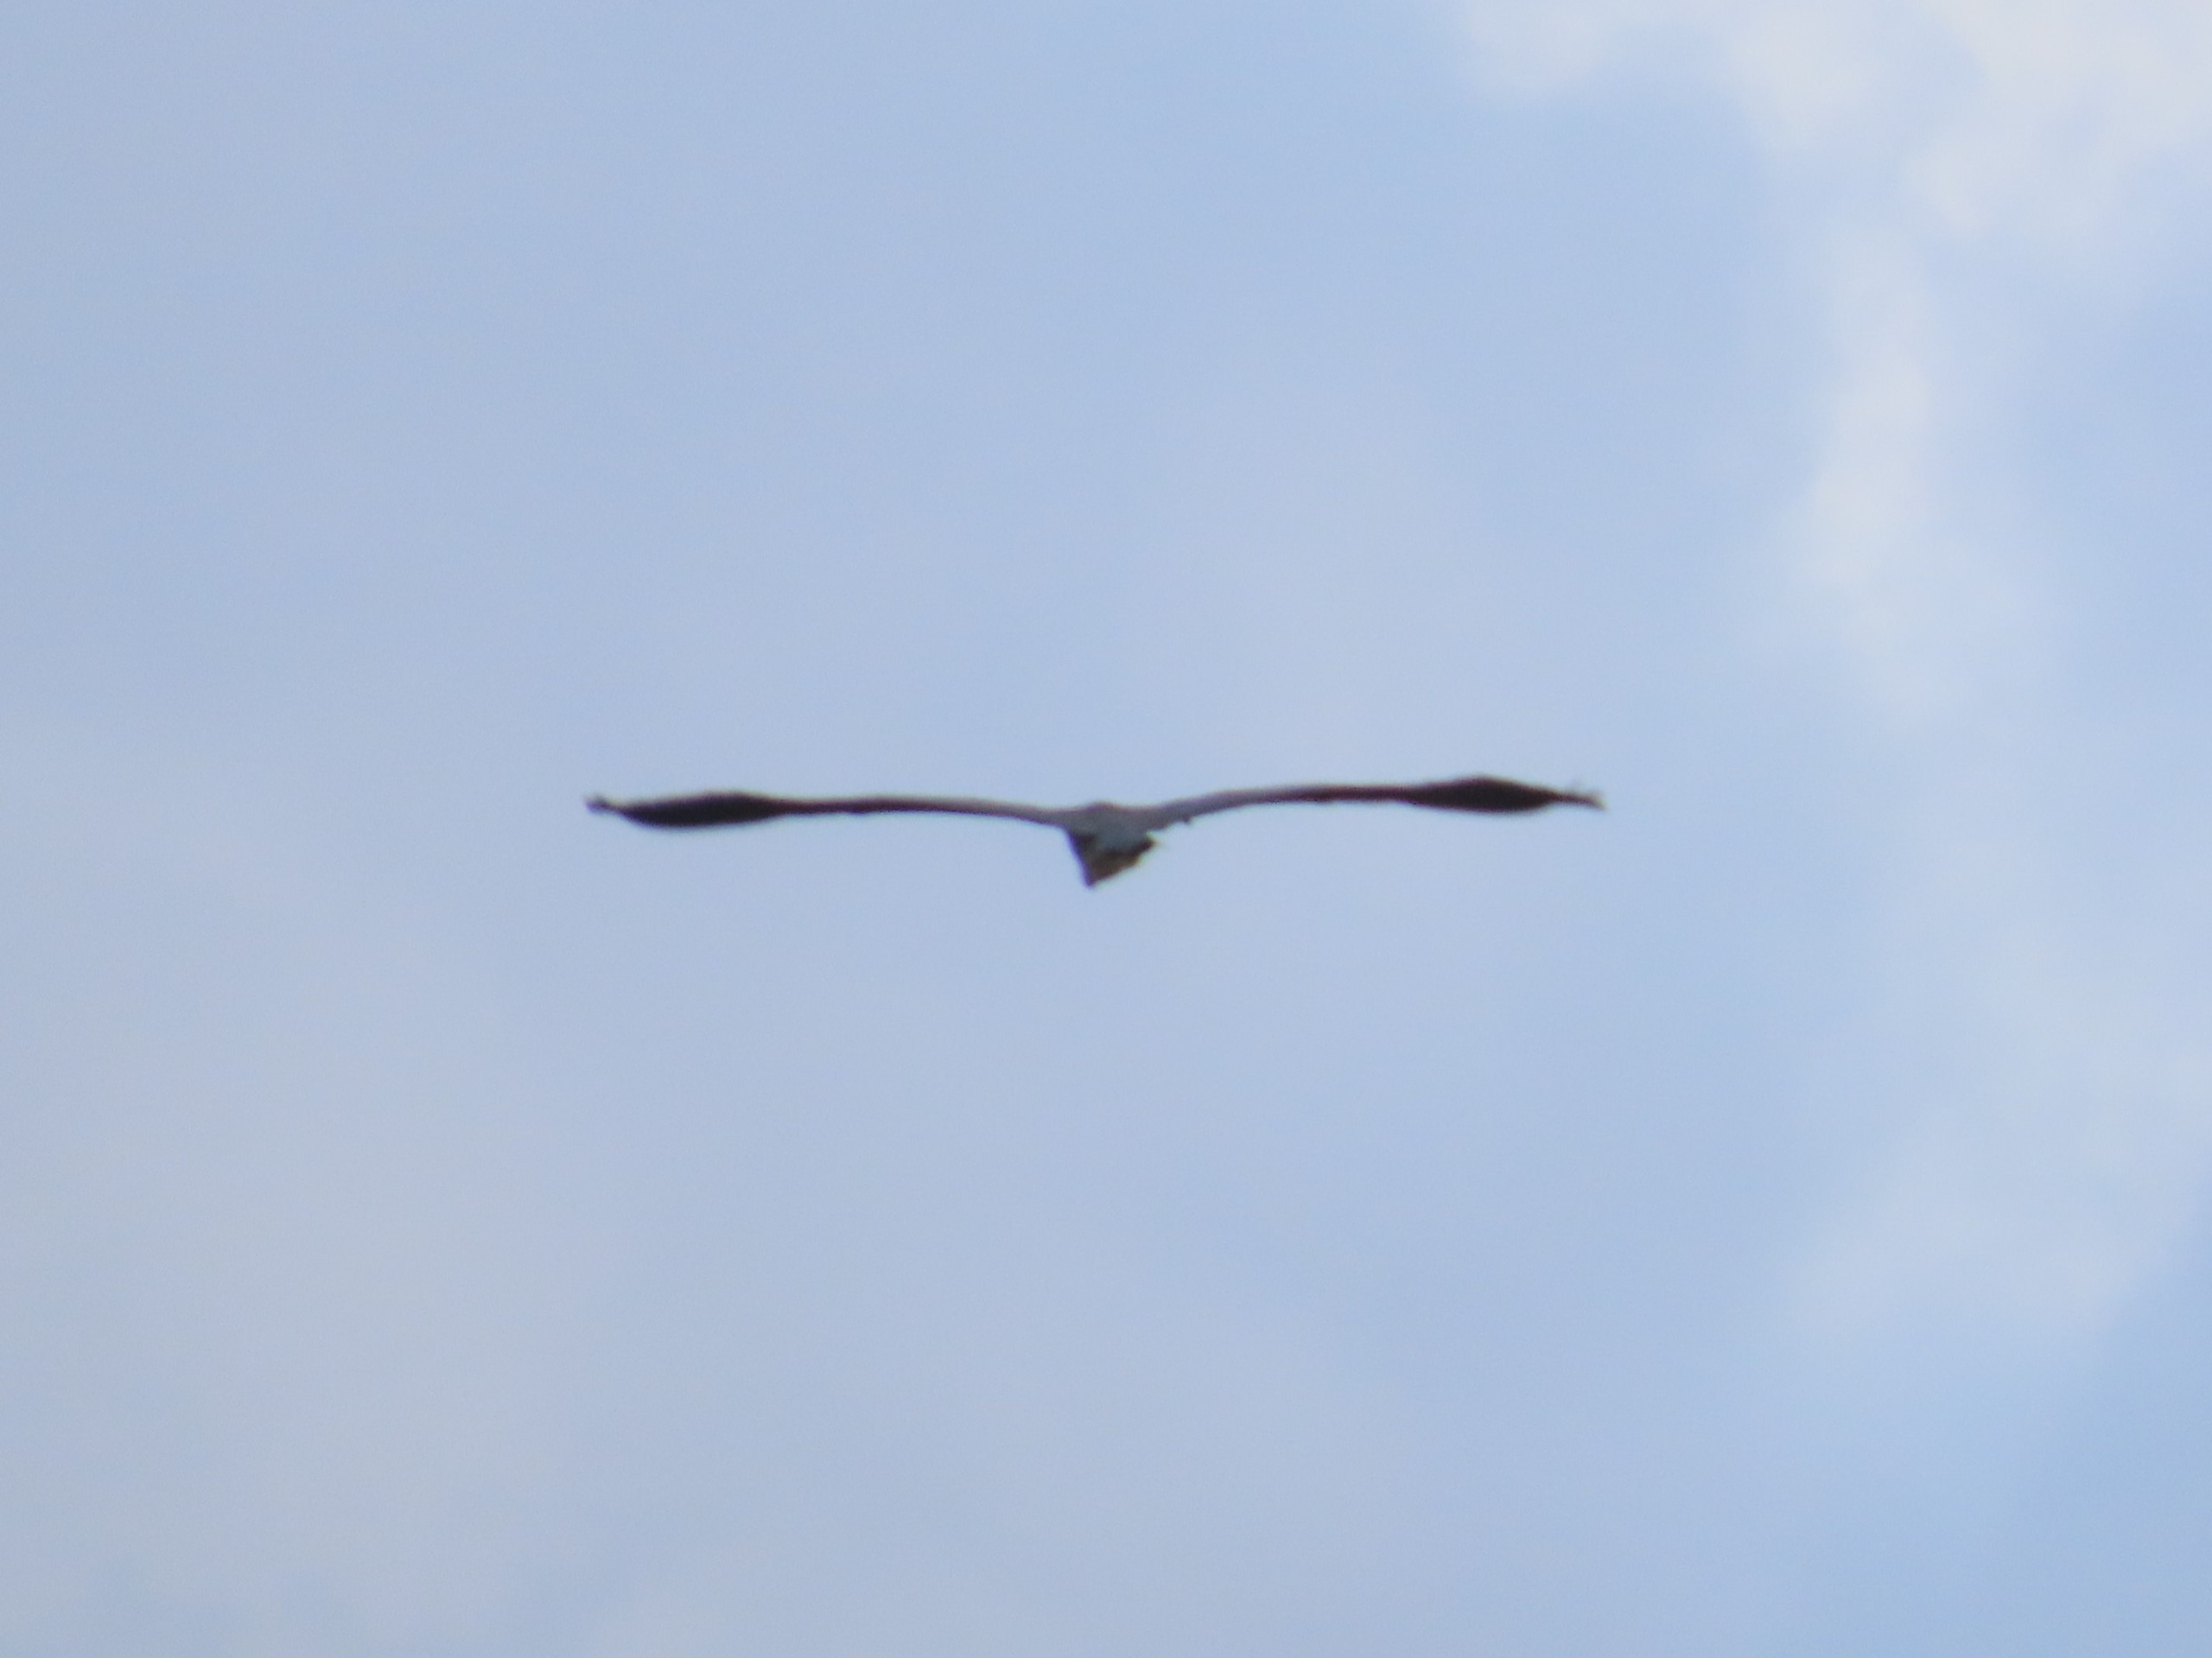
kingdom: Animalia
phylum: Chordata
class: Aves
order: Pelecaniformes
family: Ardeidae
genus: Ardea
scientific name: Ardea cinerea
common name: Fiskehejre
